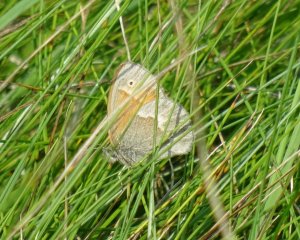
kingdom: Animalia
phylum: Arthropoda
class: Insecta
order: Lepidoptera
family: Nymphalidae
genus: Coenonympha
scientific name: Coenonympha tullia
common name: Large Heath
